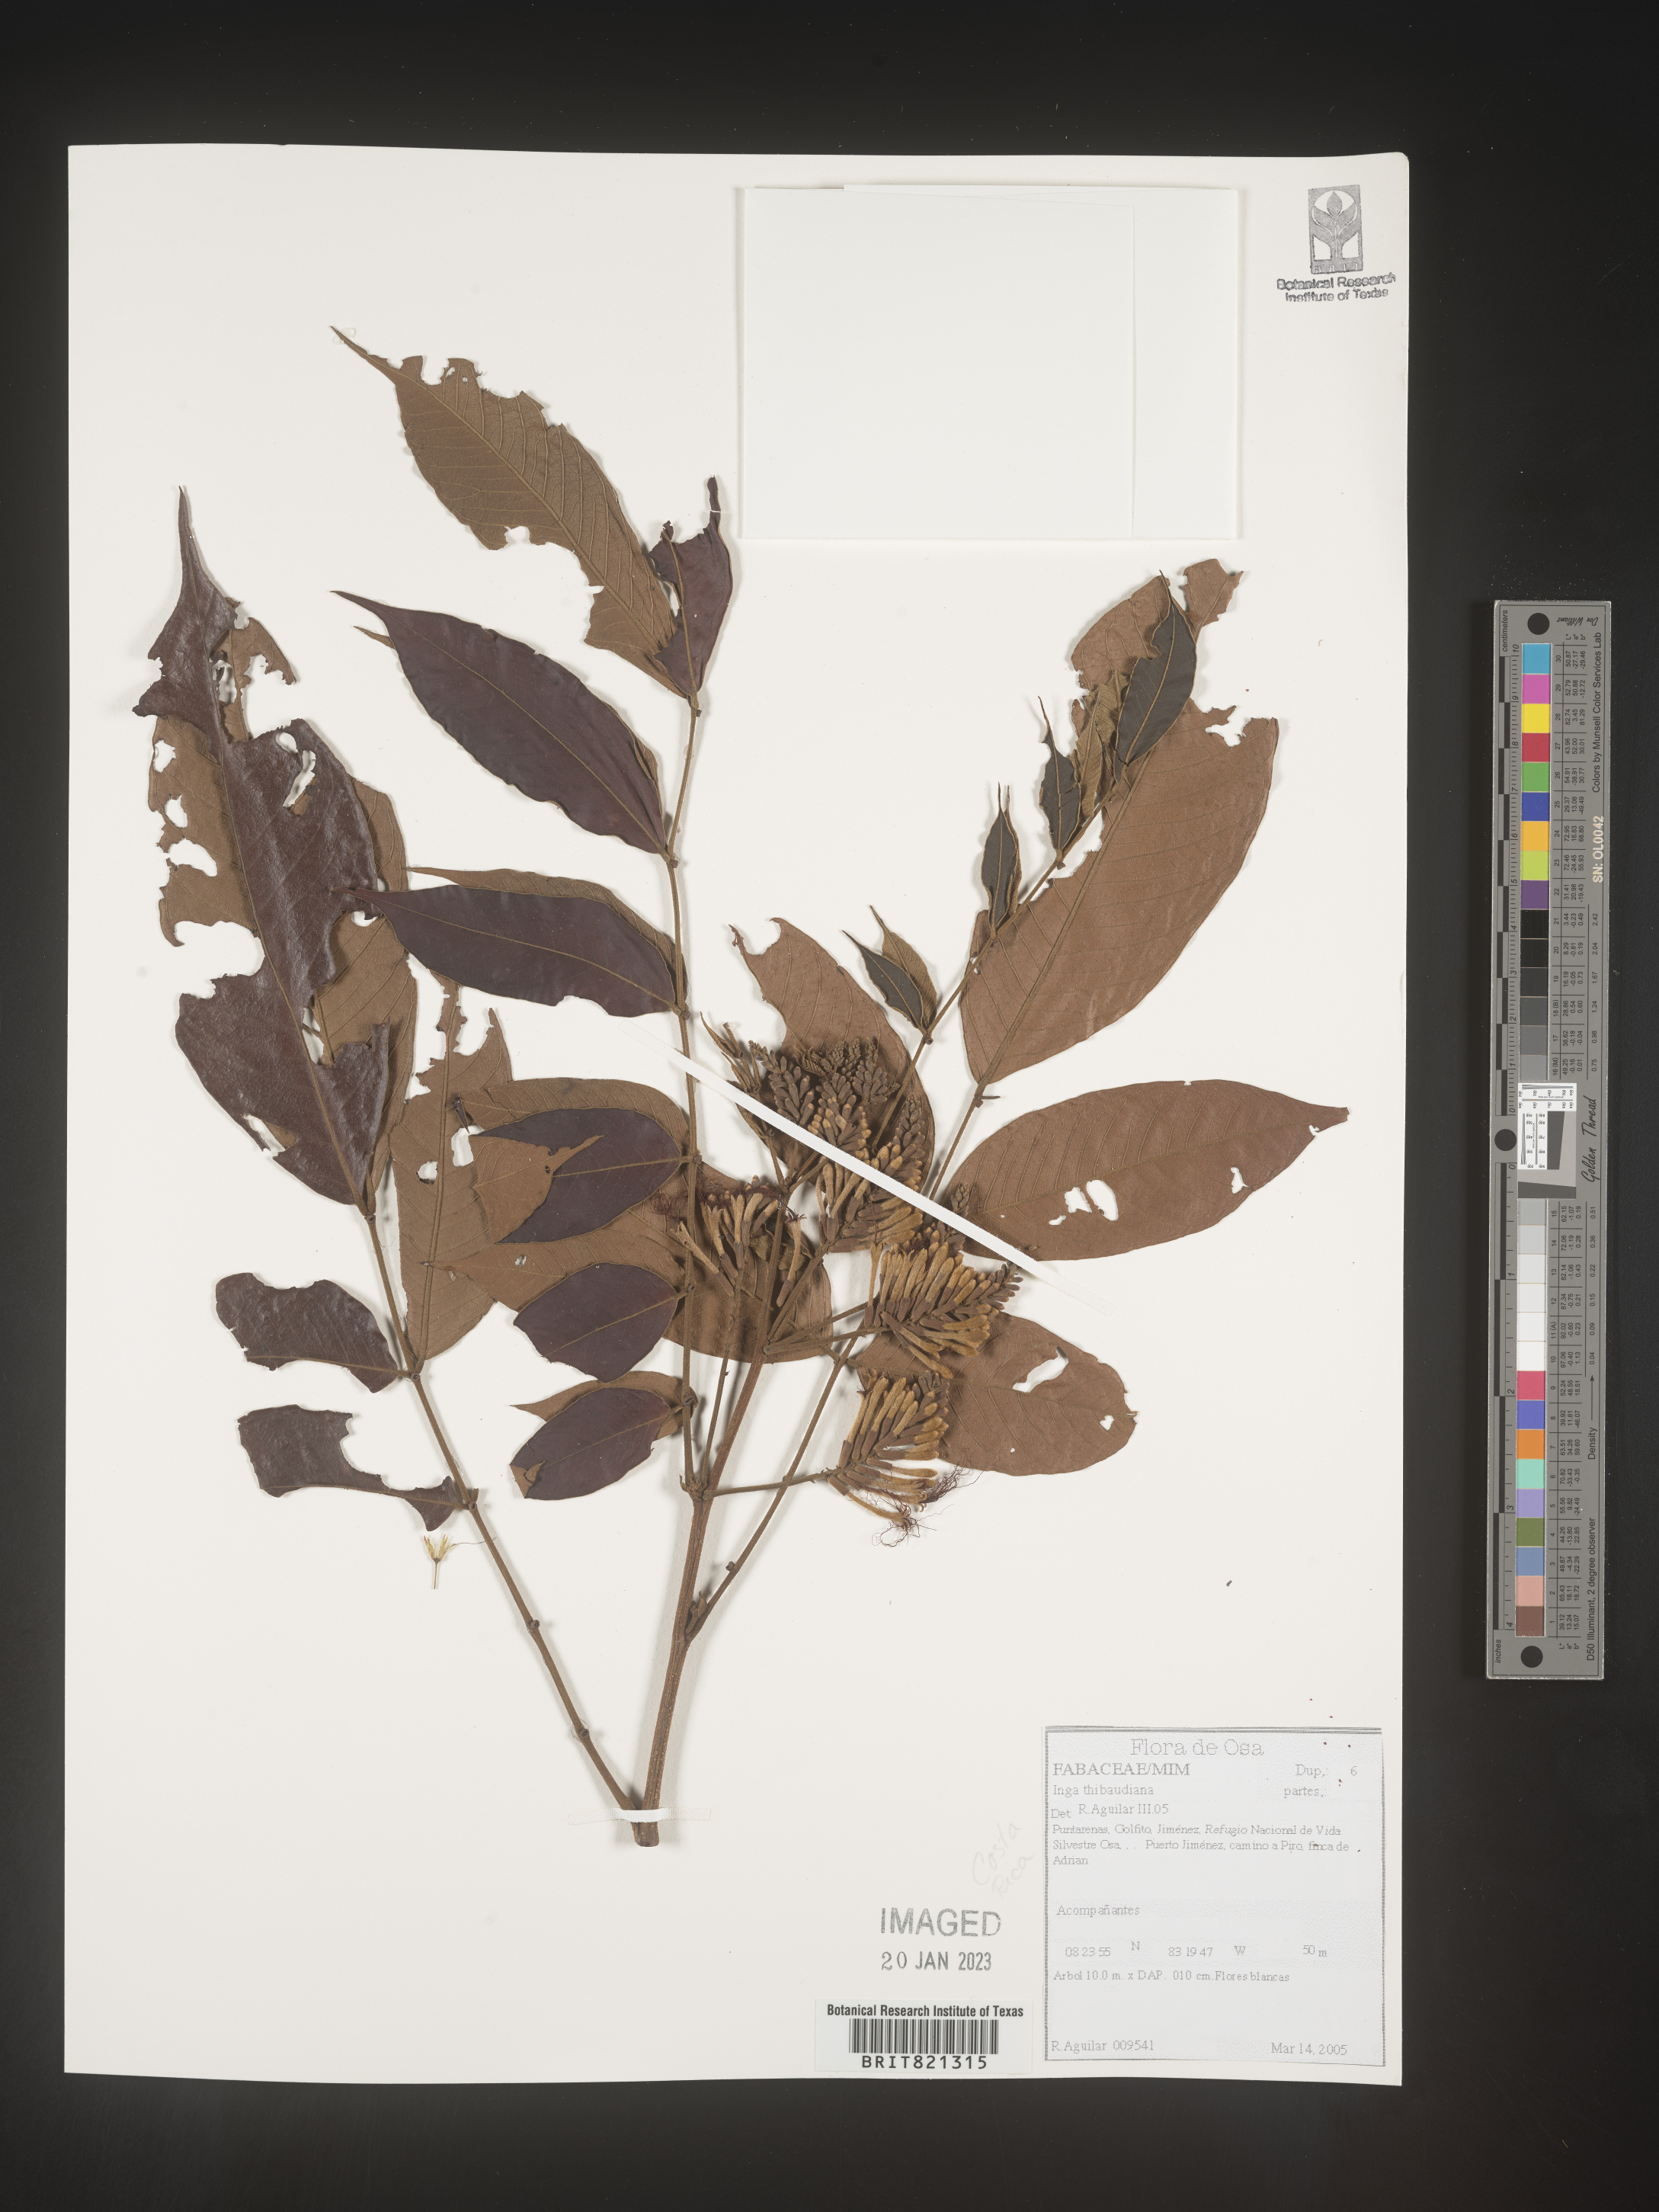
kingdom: Plantae
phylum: Tracheophyta
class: Magnoliopsida
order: Fabales
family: Fabaceae
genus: Inga
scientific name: Inga
